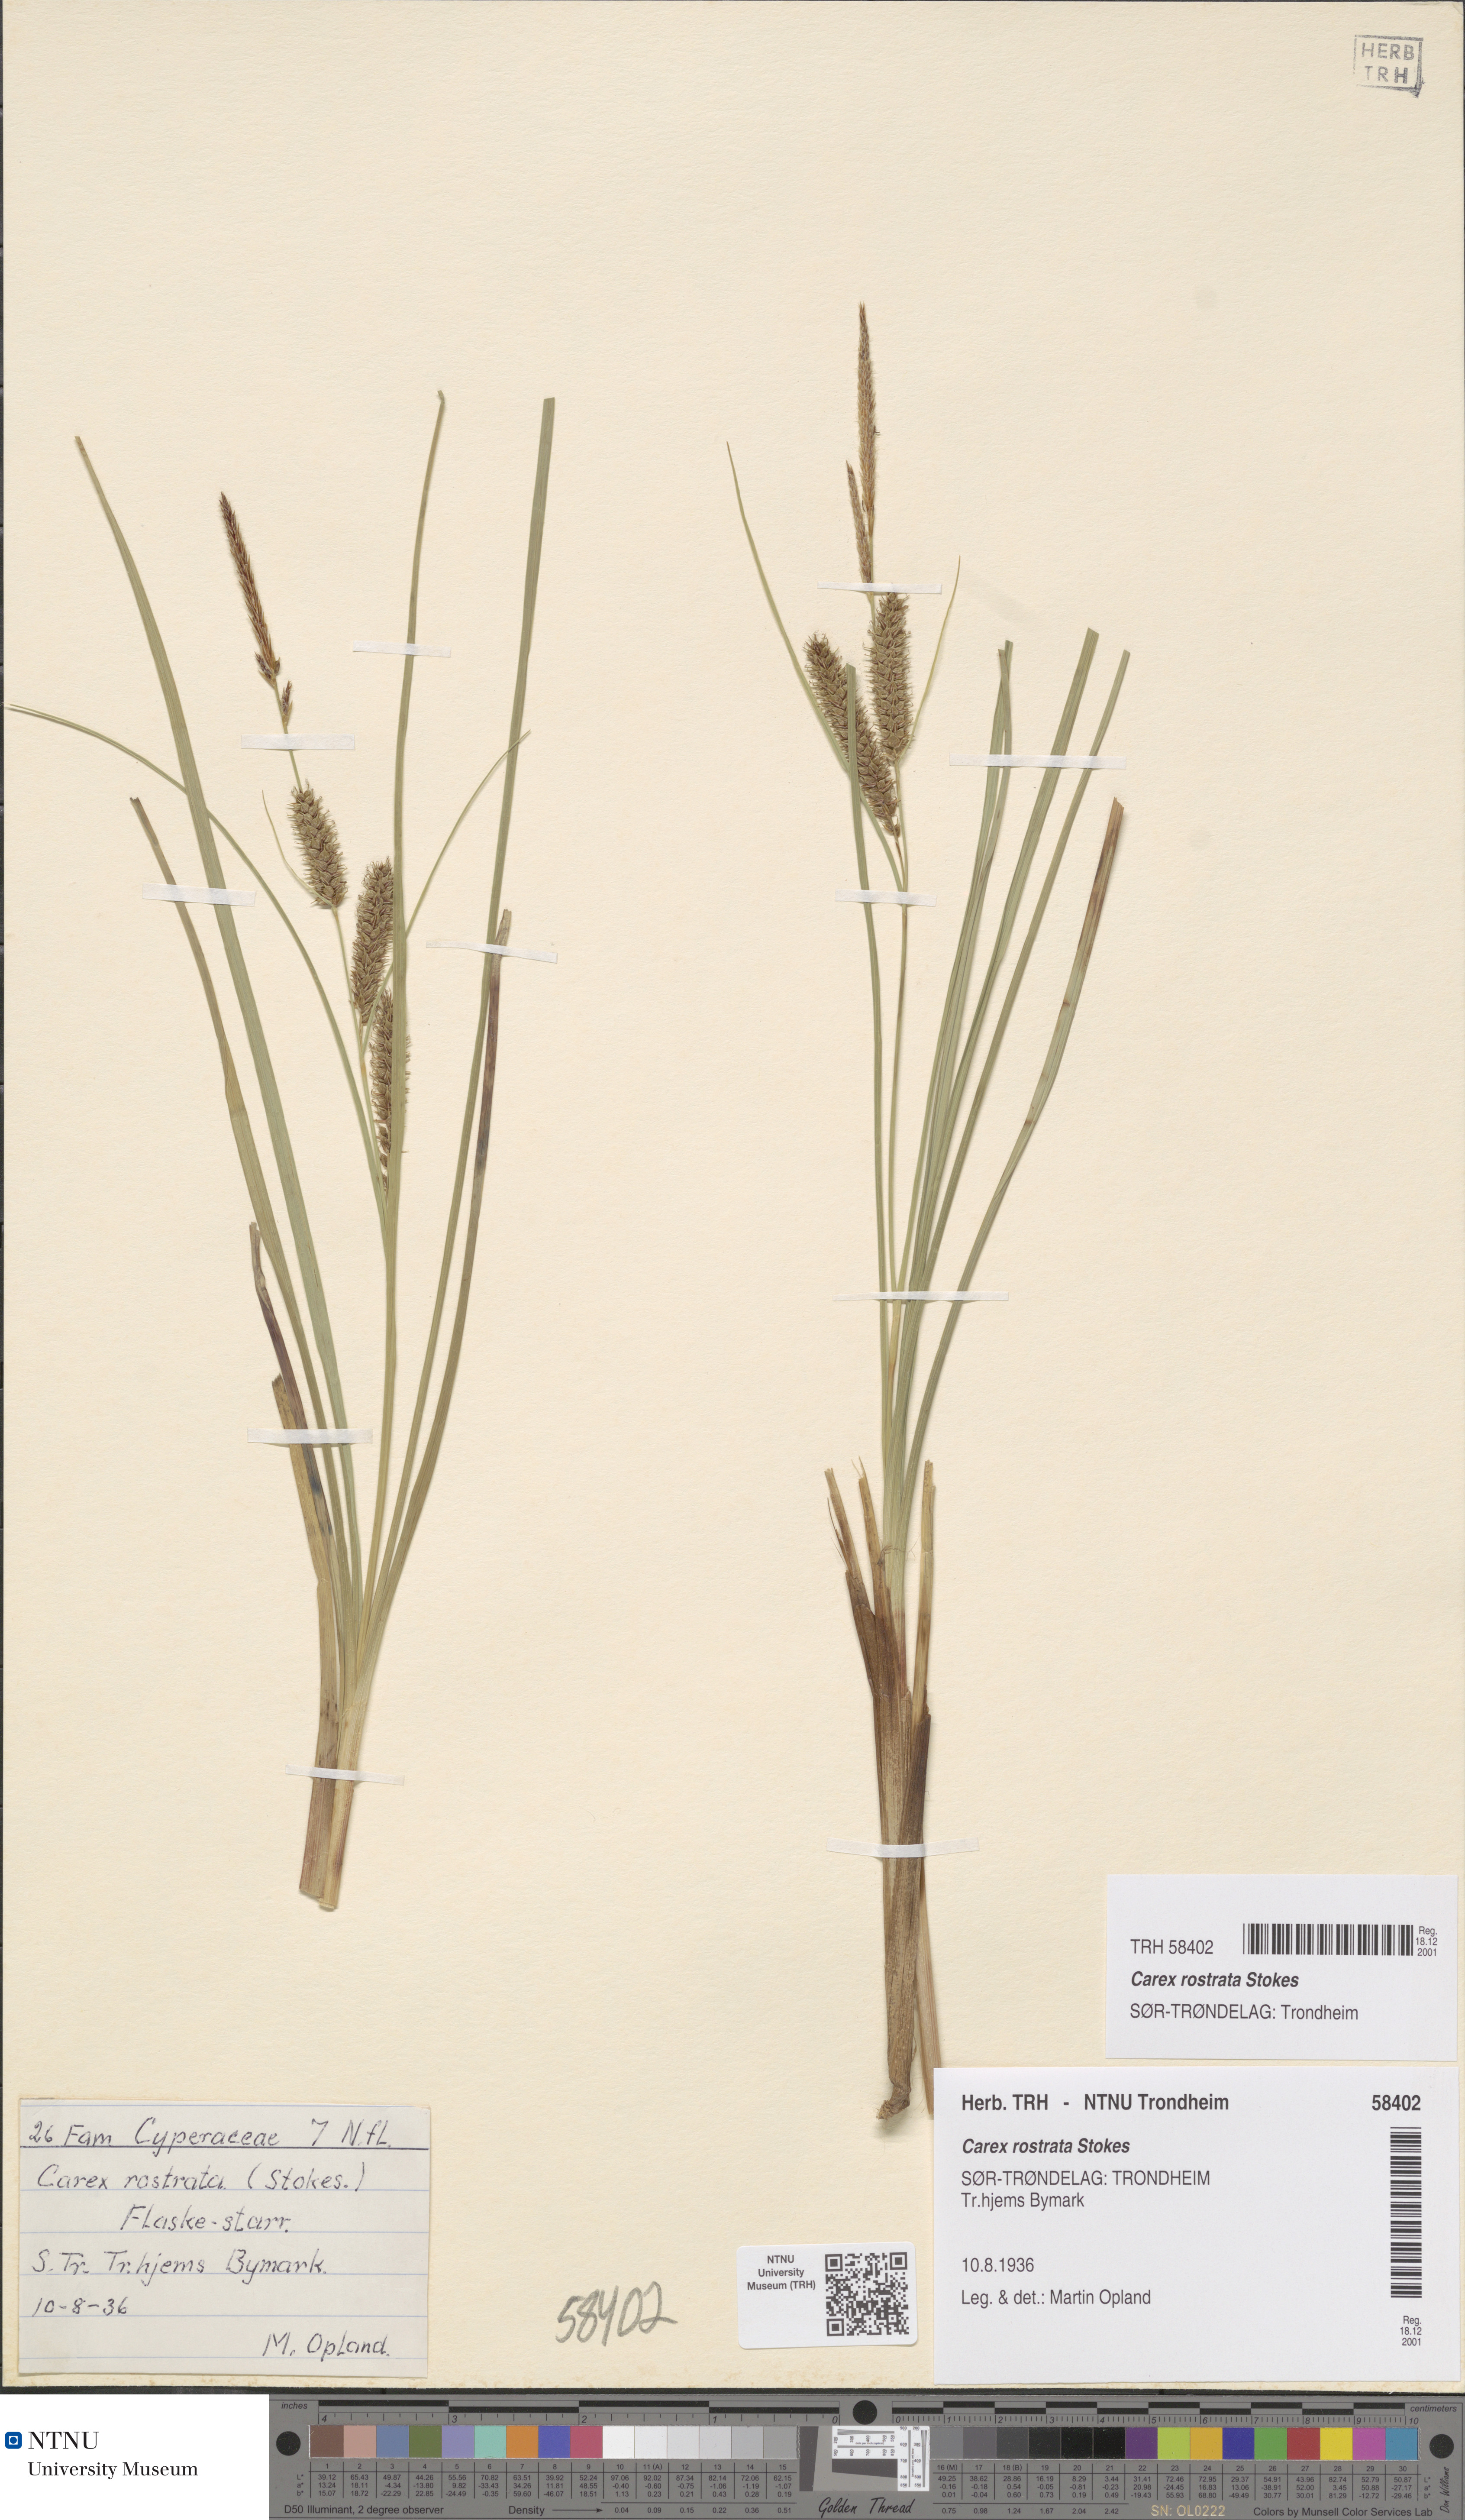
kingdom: Plantae
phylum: Tracheophyta
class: Liliopsida
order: Poales
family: Cyperaceae
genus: Carex
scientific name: Carex rostrata
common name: Bottle sedge
